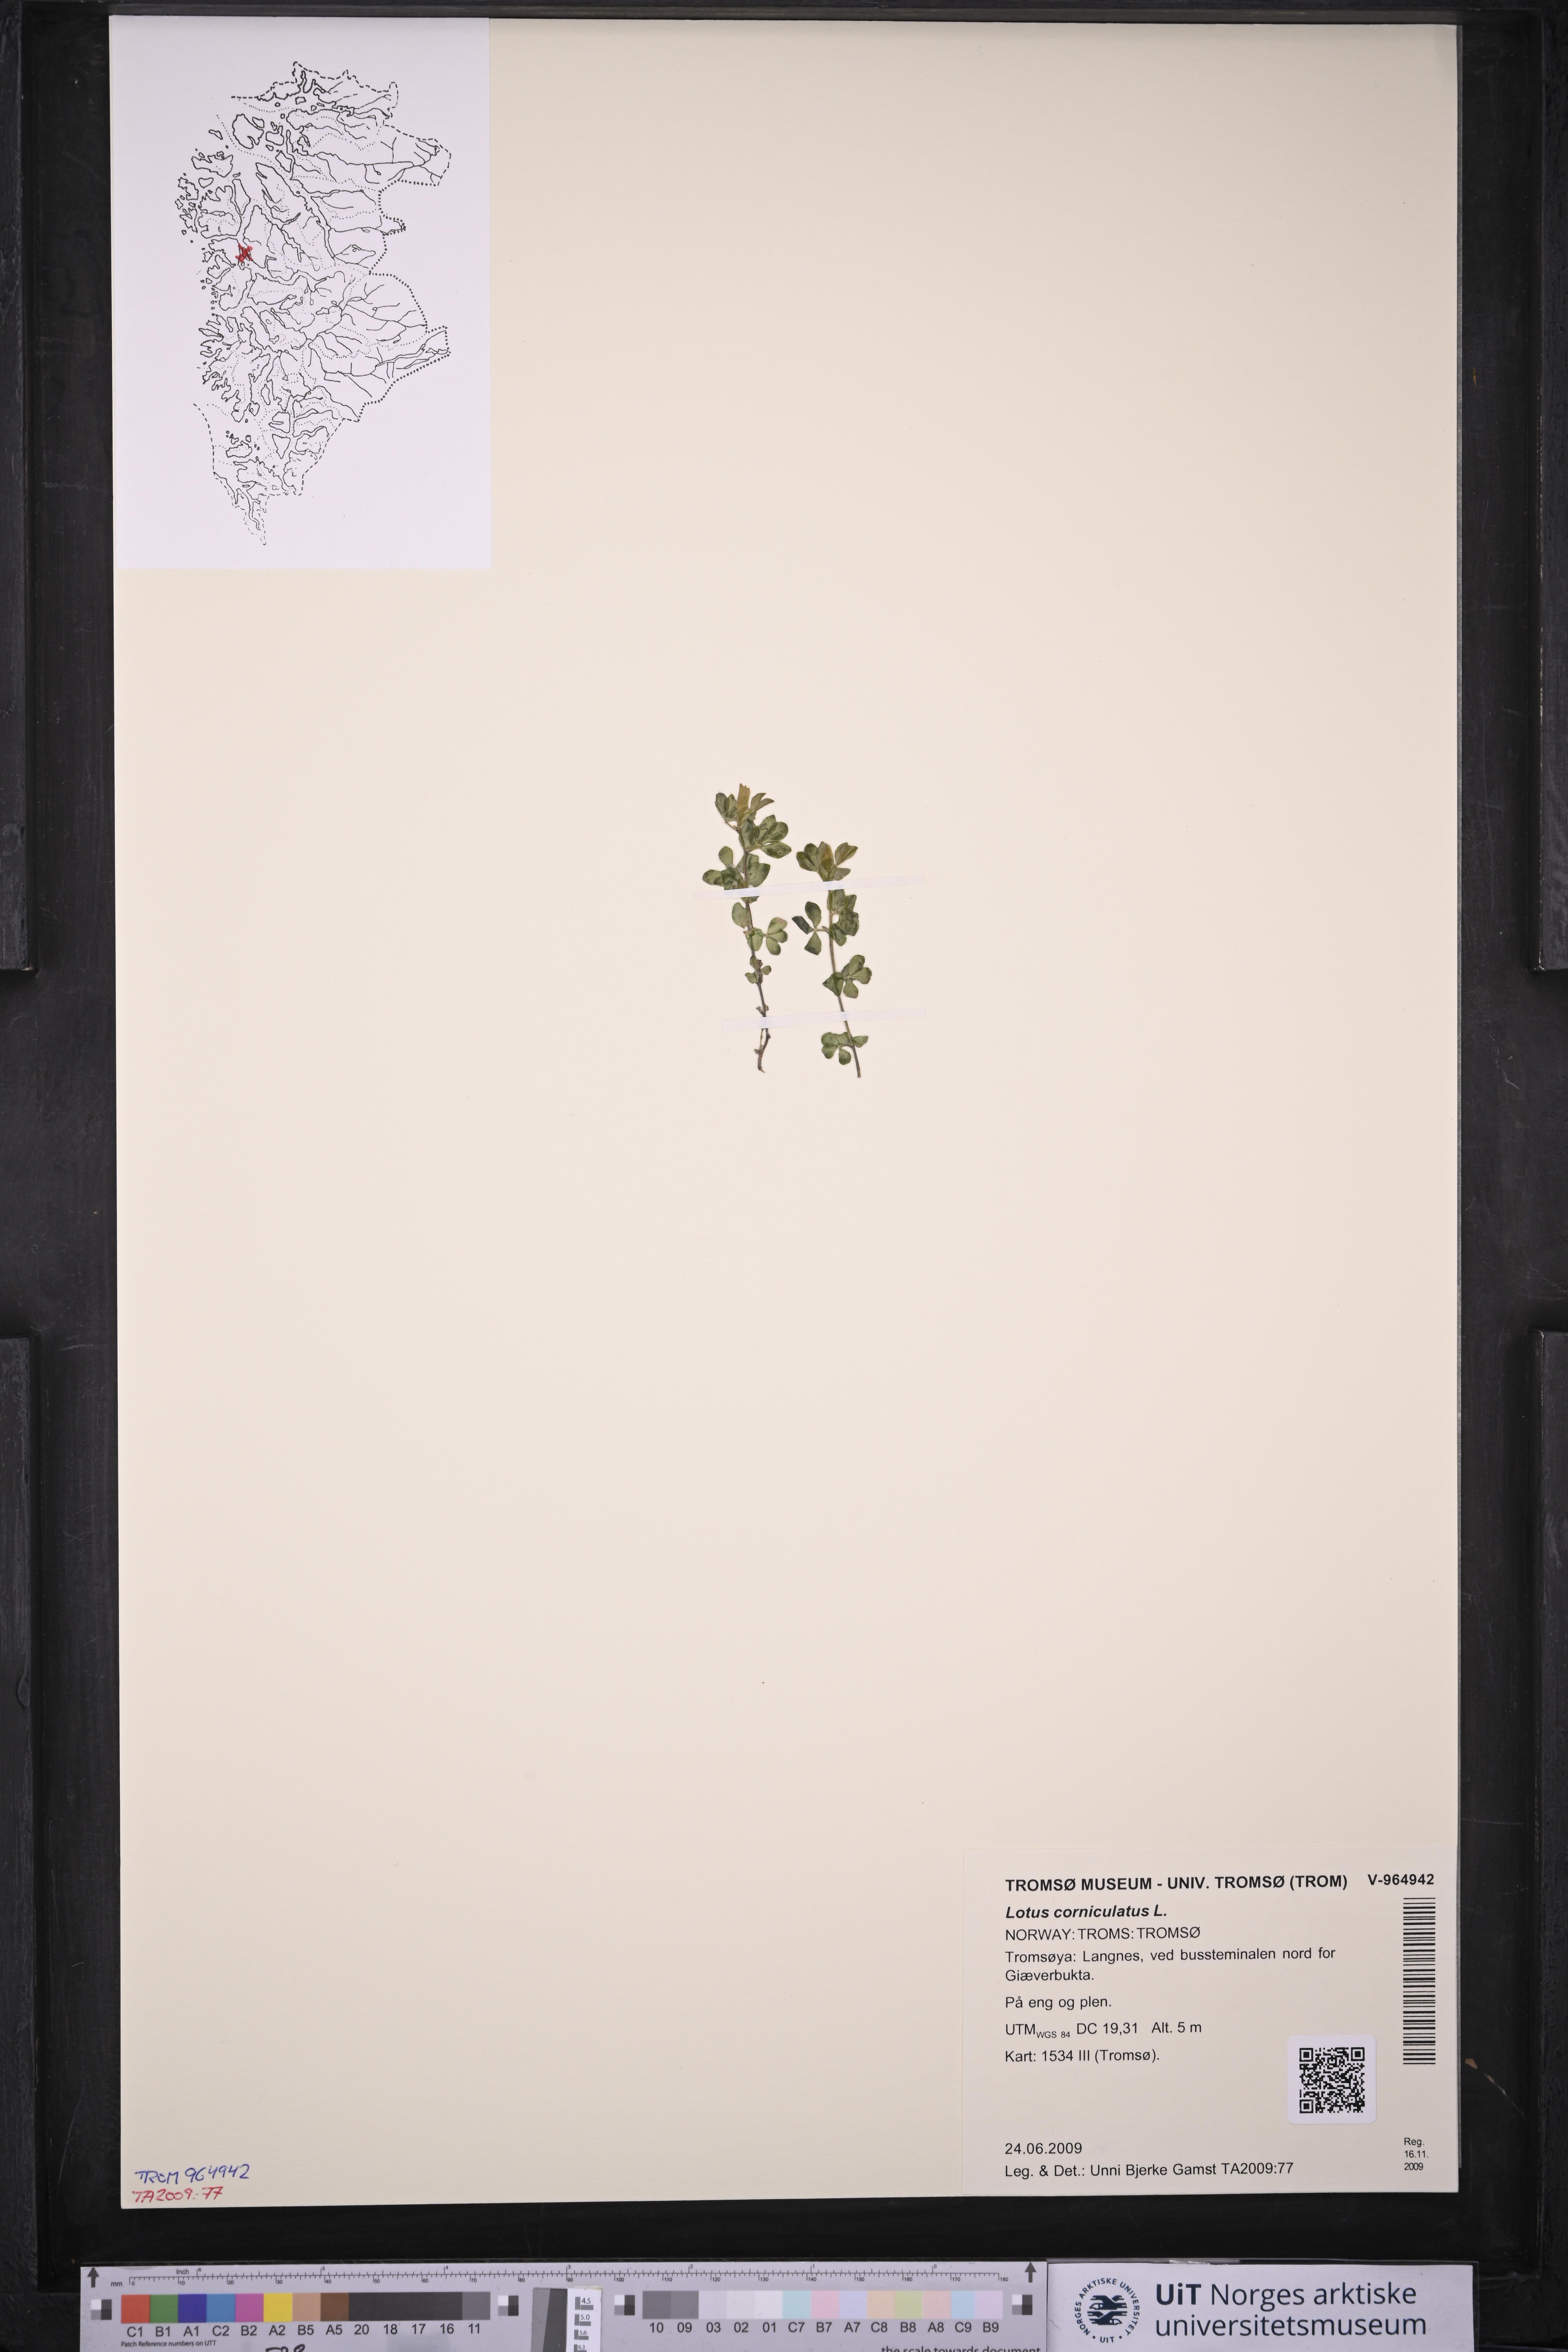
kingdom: Plantae
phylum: Tracheophyta
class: Magnoliopsida
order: Fabales
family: Fabaceae
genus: Lotus
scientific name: Lotus corniculatus
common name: Common bird's-foot-trefoil
